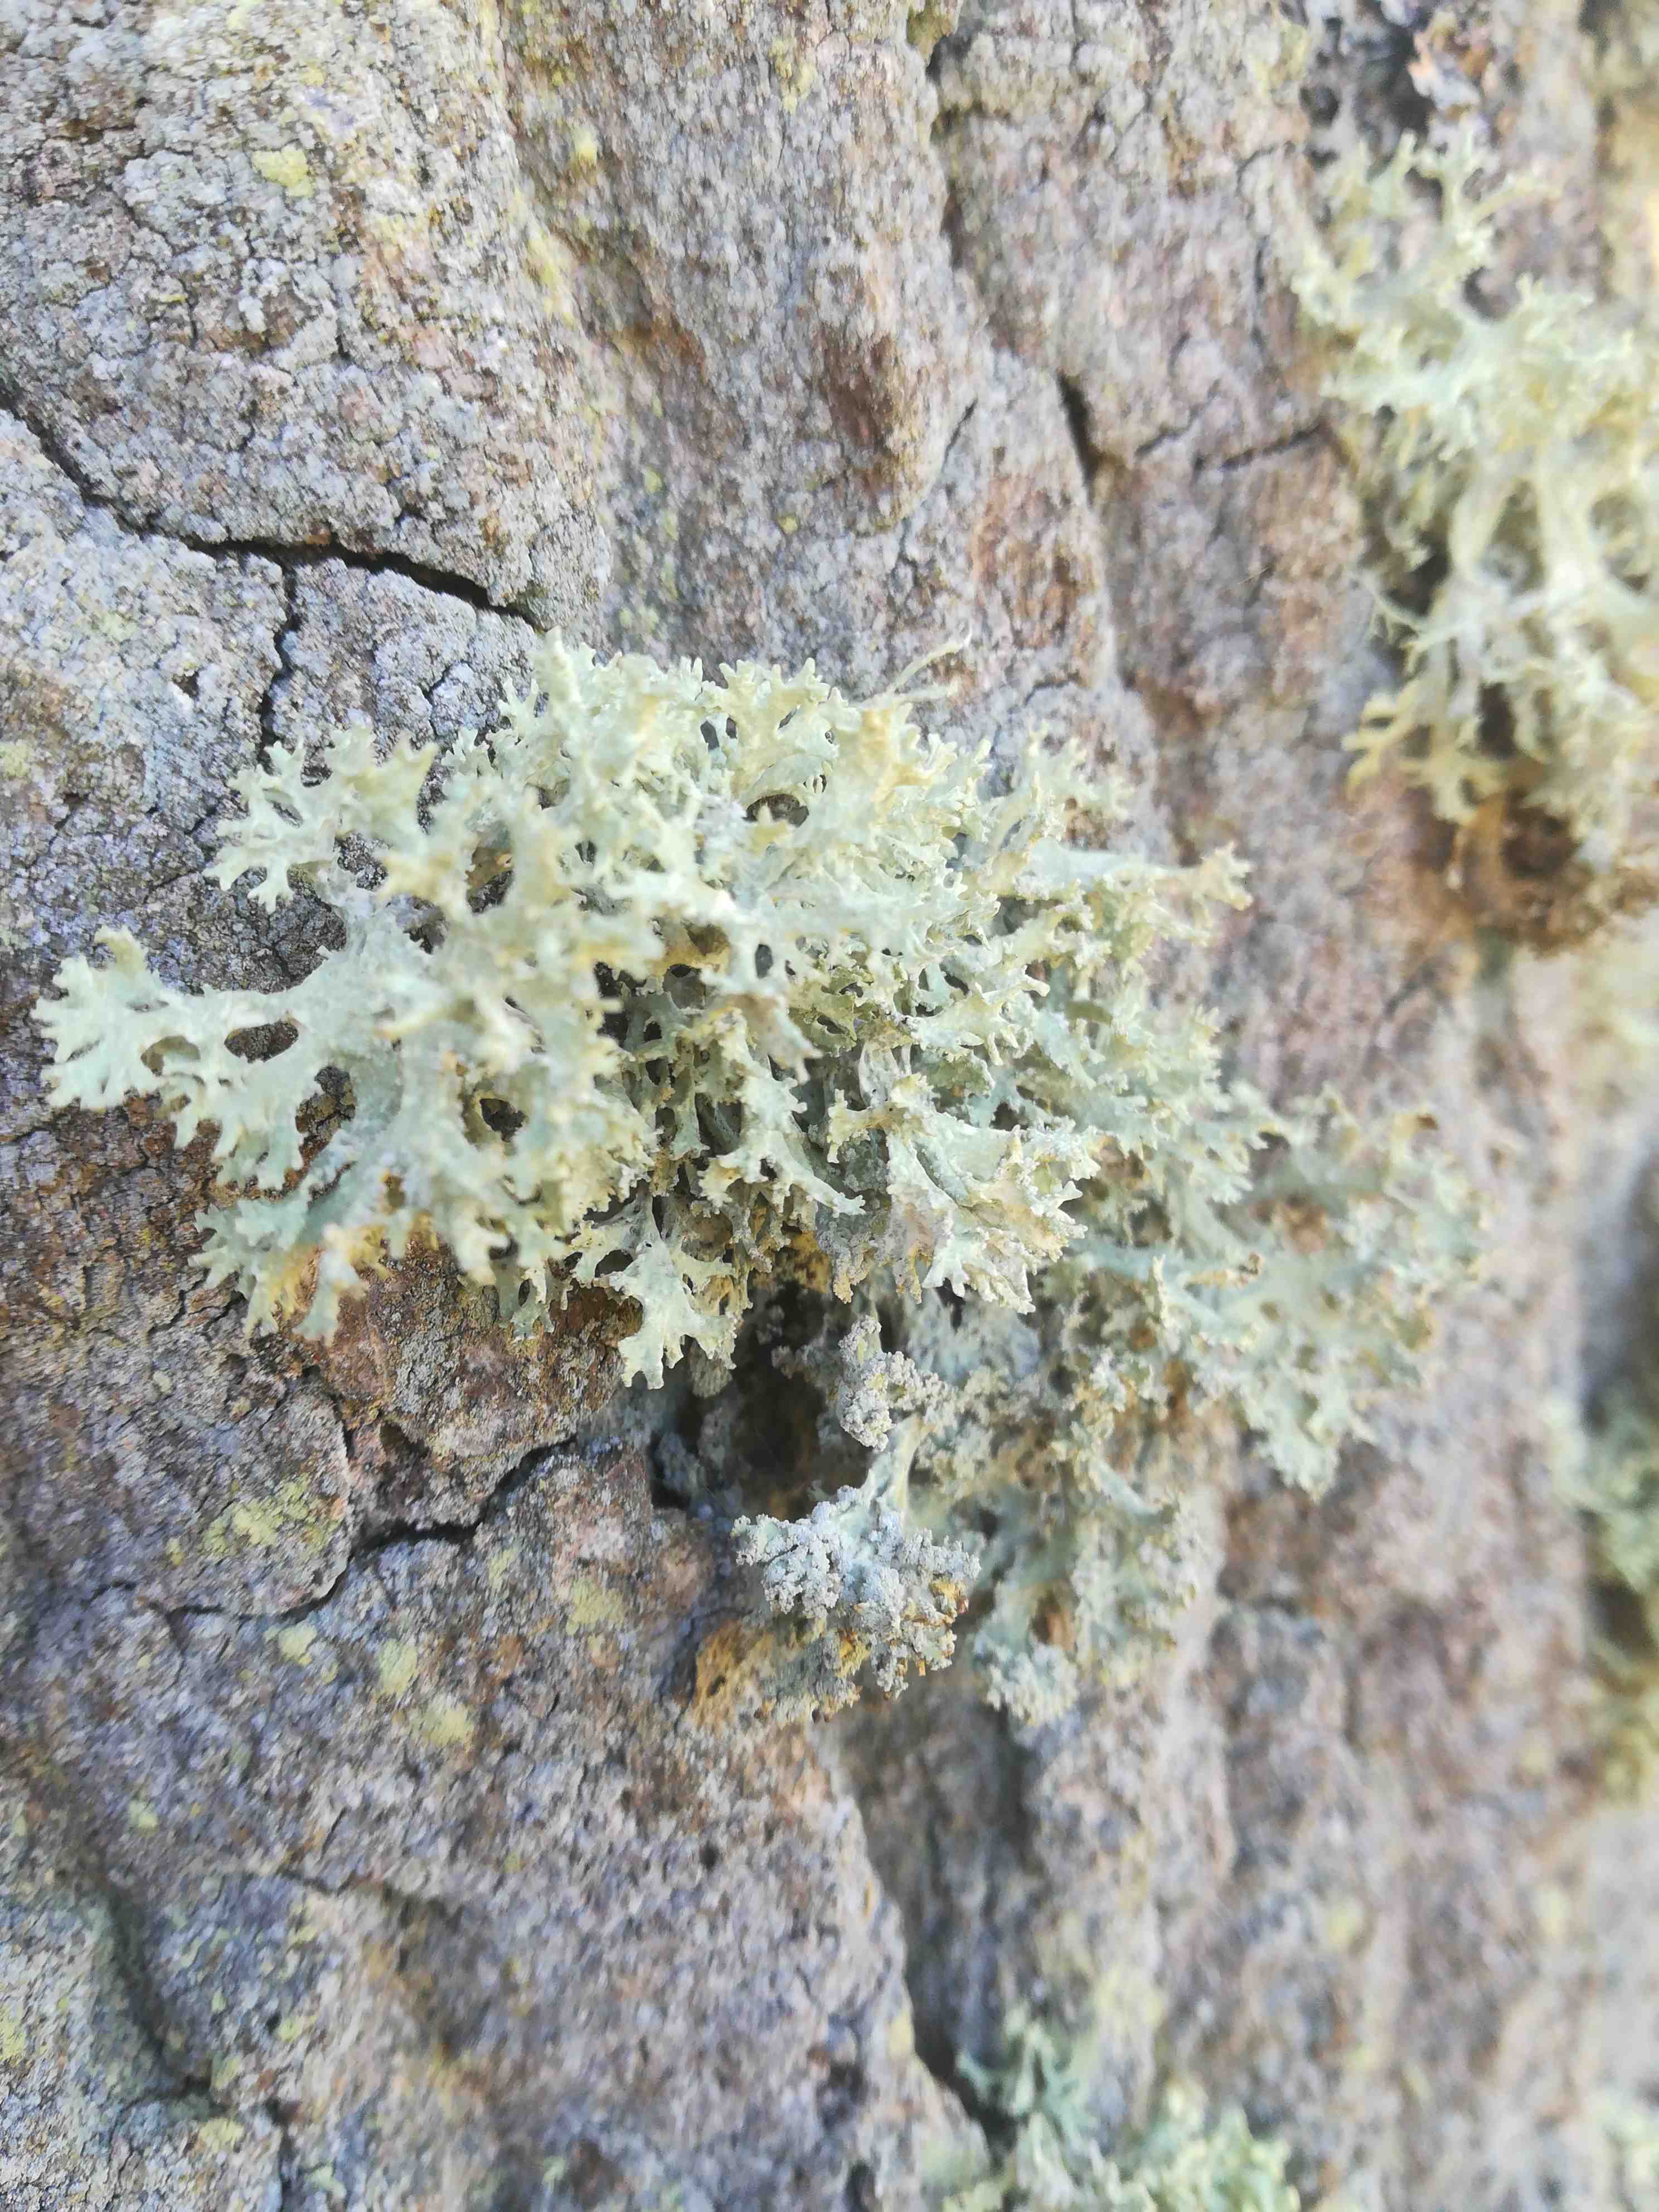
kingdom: Fungi
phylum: Ascomycota
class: Lecanoromycetes
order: Lecanorales
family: Parmeliaceae
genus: Evernia
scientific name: Evernia prunastri
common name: almindelig slåenlav
